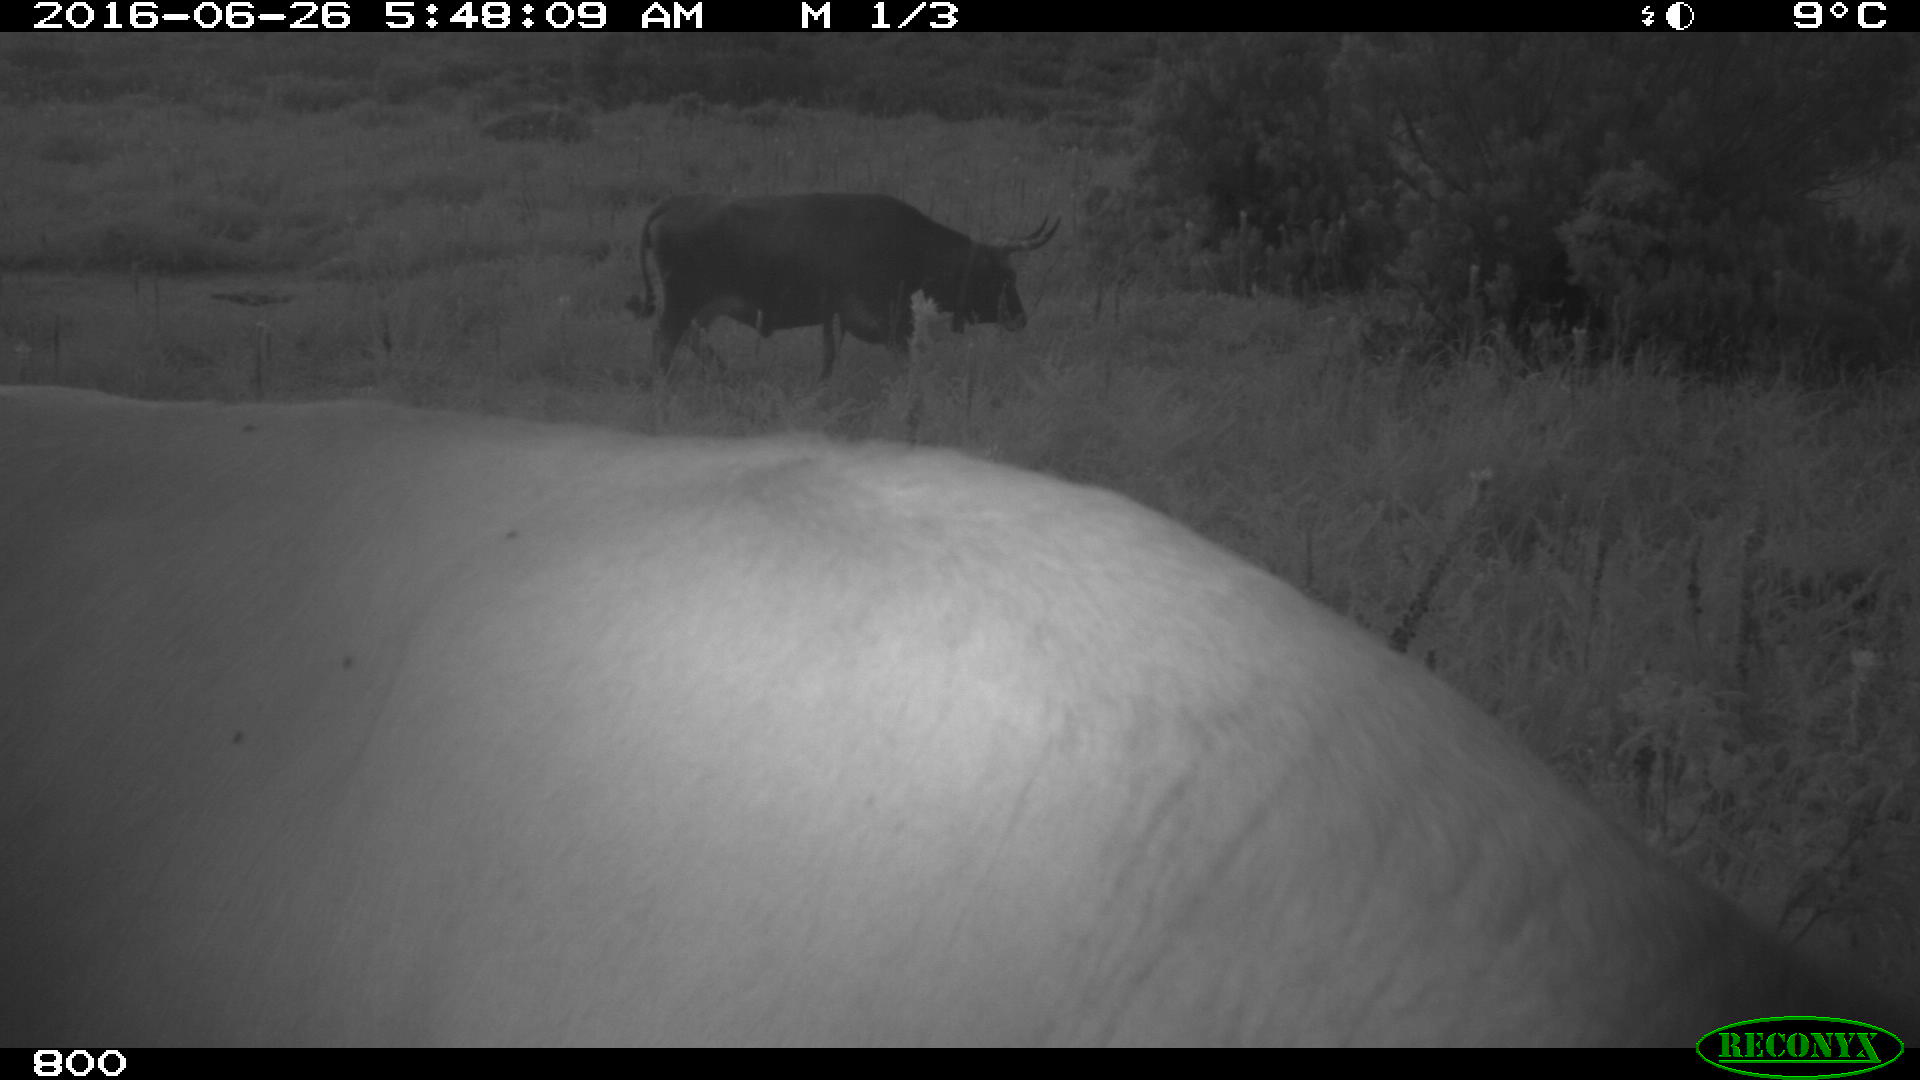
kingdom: Animalia
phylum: Chordata
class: Mammalia
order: Artiodactyla
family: Bovidae
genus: Bos
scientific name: Bos taurus
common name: Domesticated cattle
